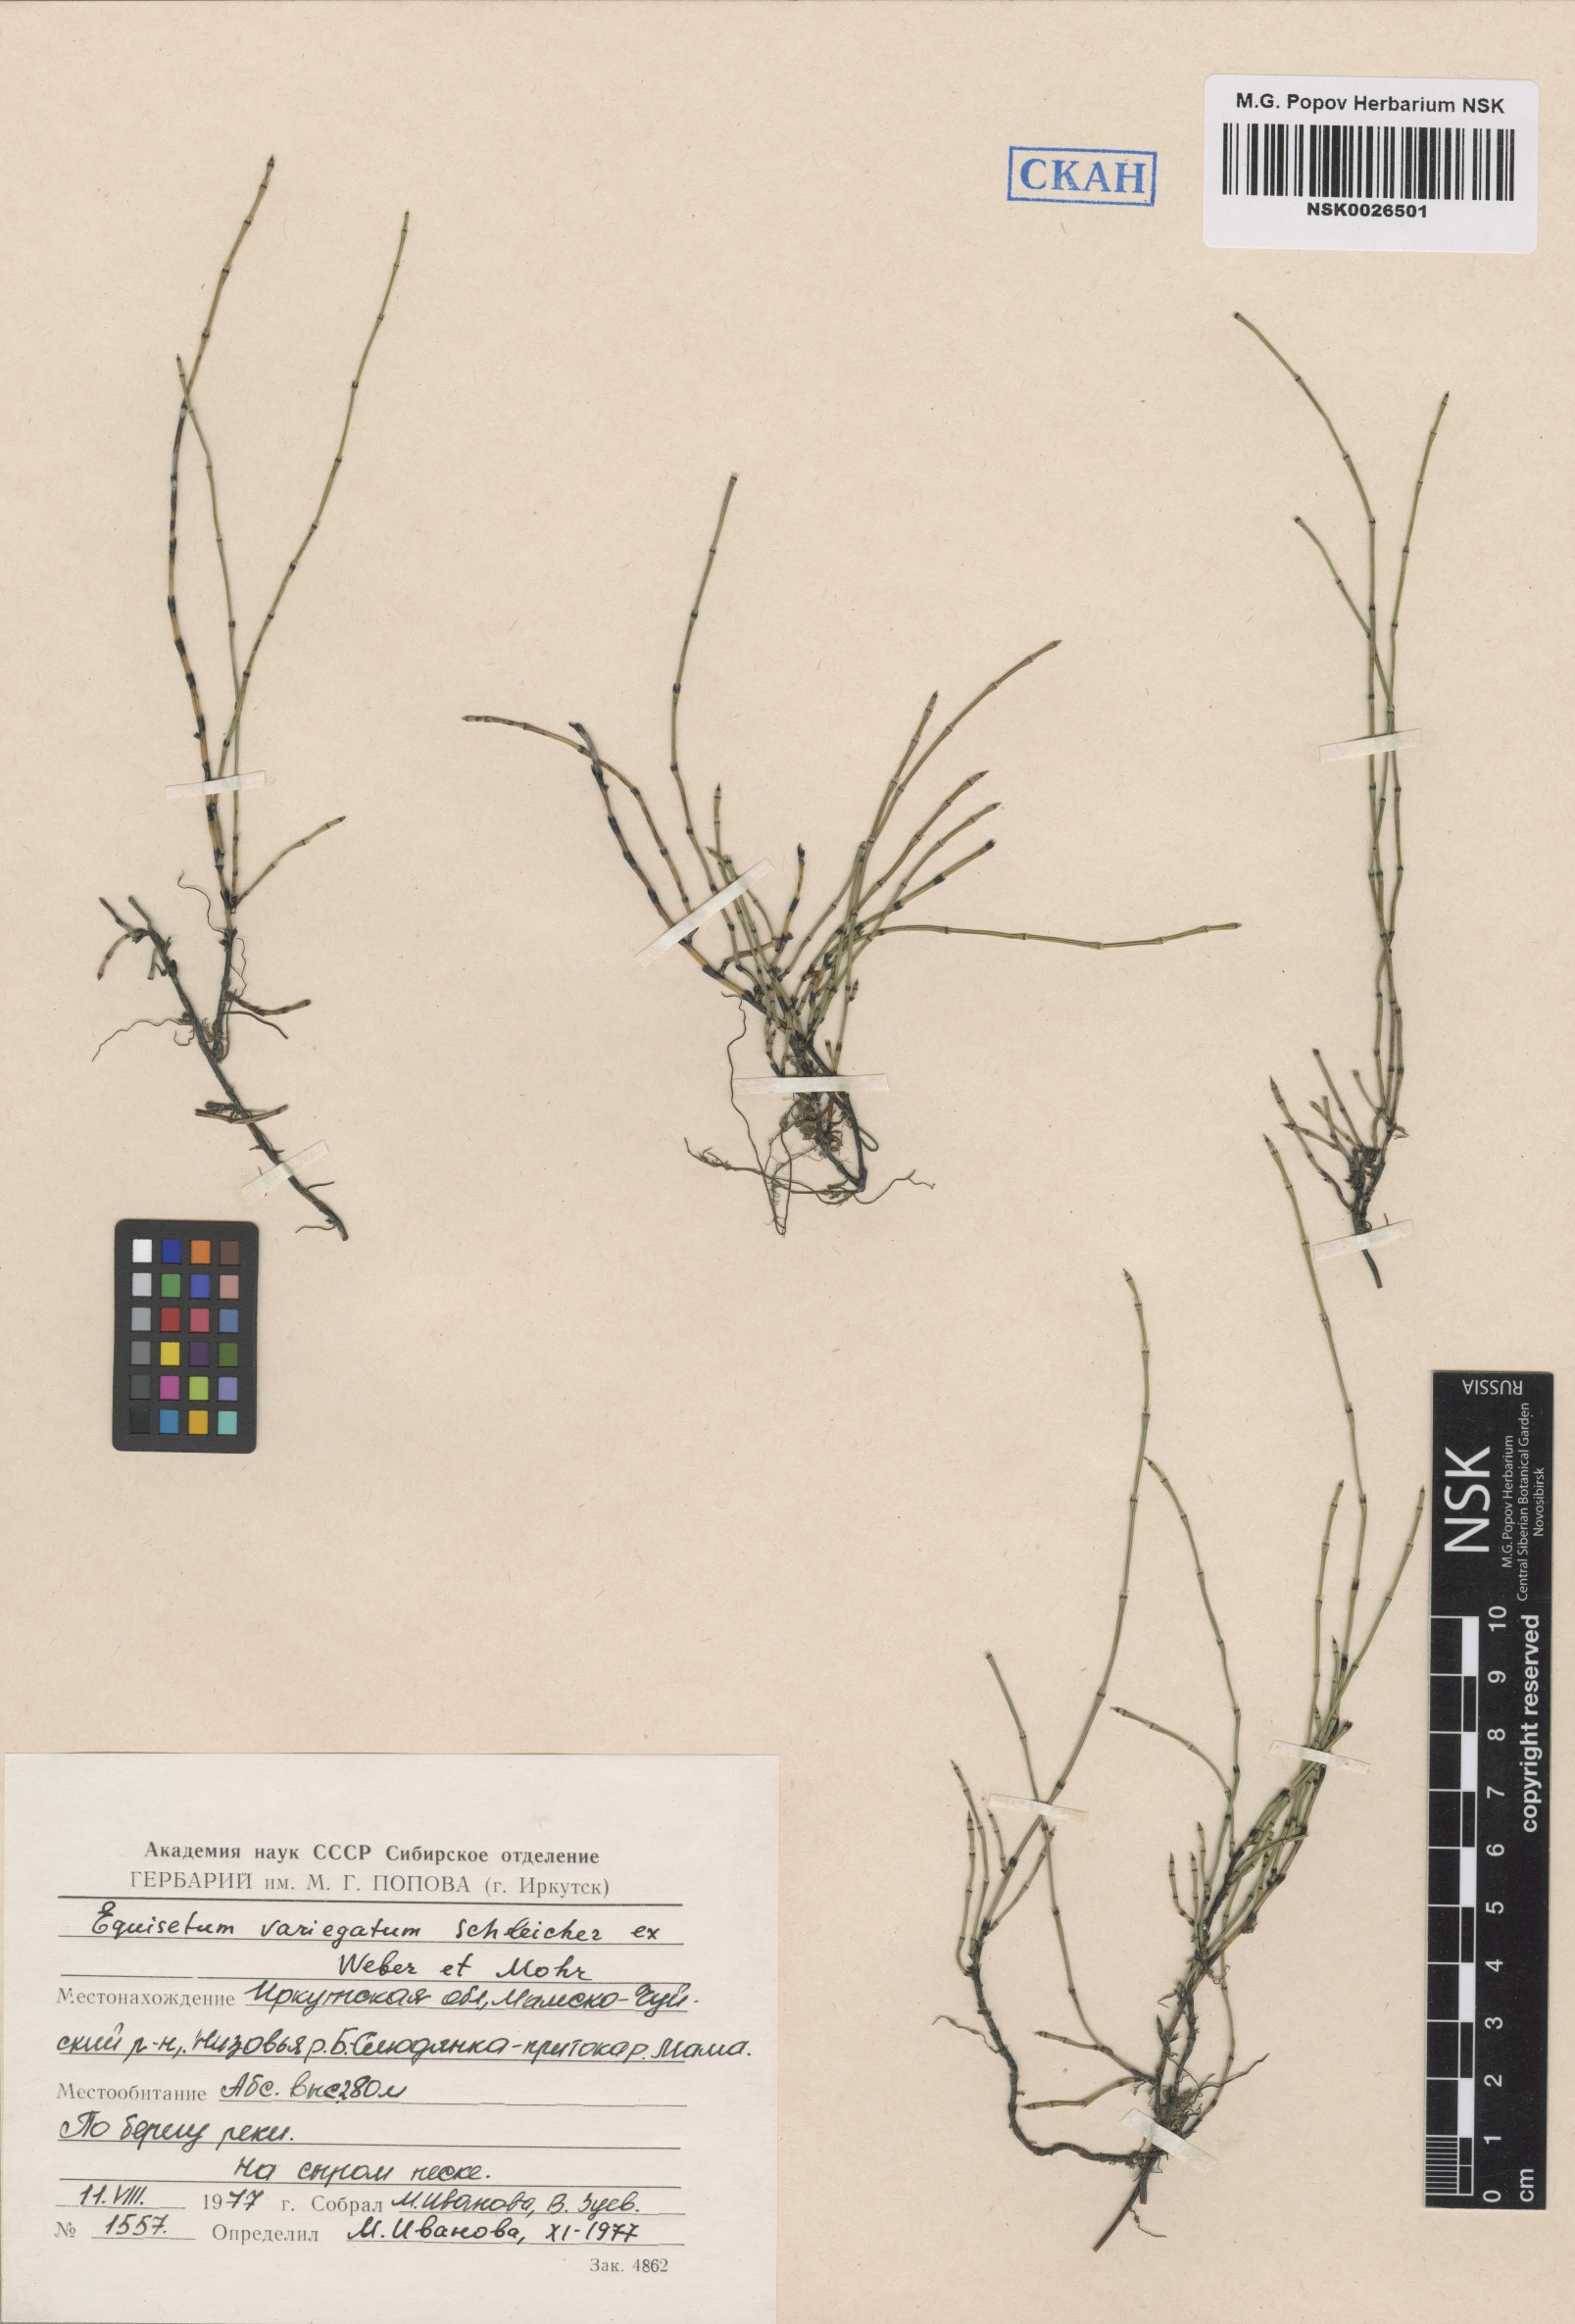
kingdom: Plantae
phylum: Tracheophyta
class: Polypodiopsida
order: Equisetales
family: Equisetaceae
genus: Equisetum
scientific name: Equisetum variegatum
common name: Variegated horsetail
